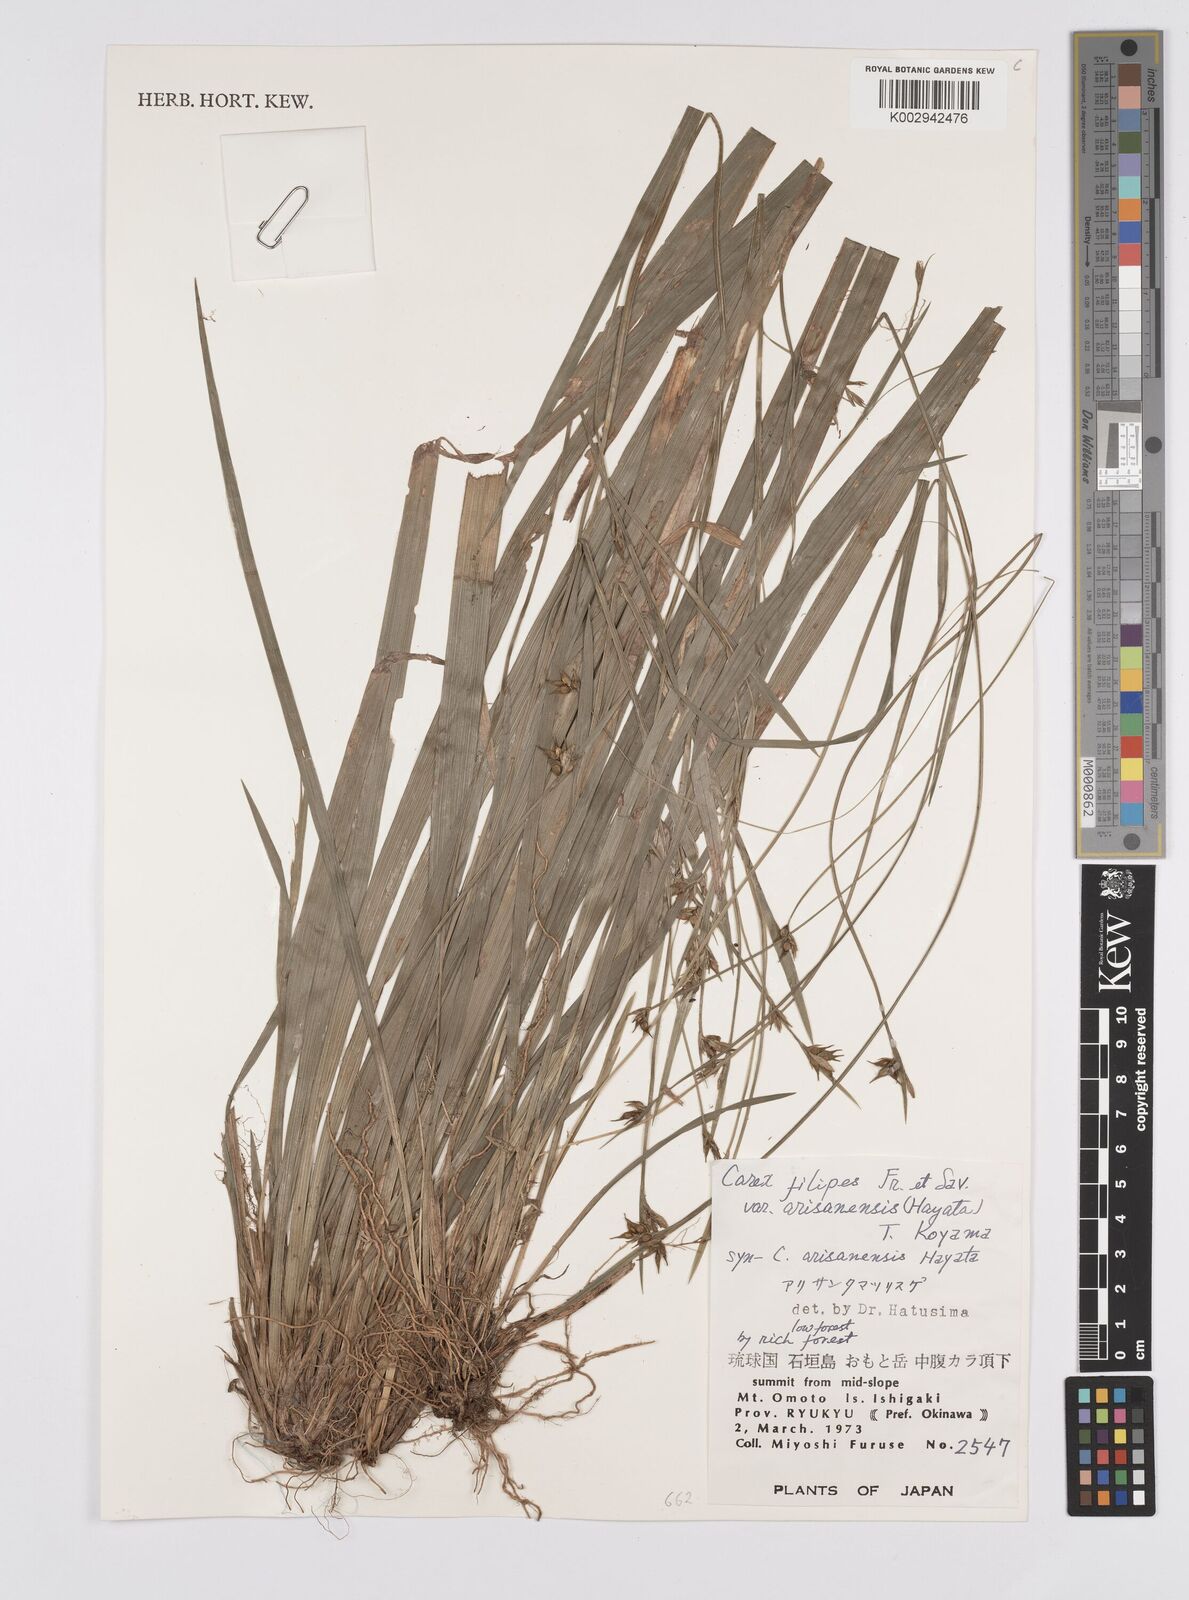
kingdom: Plantae
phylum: Tracheophyta
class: Liliopsida
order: Poales
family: Cyperaceae
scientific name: Cyperaceae
